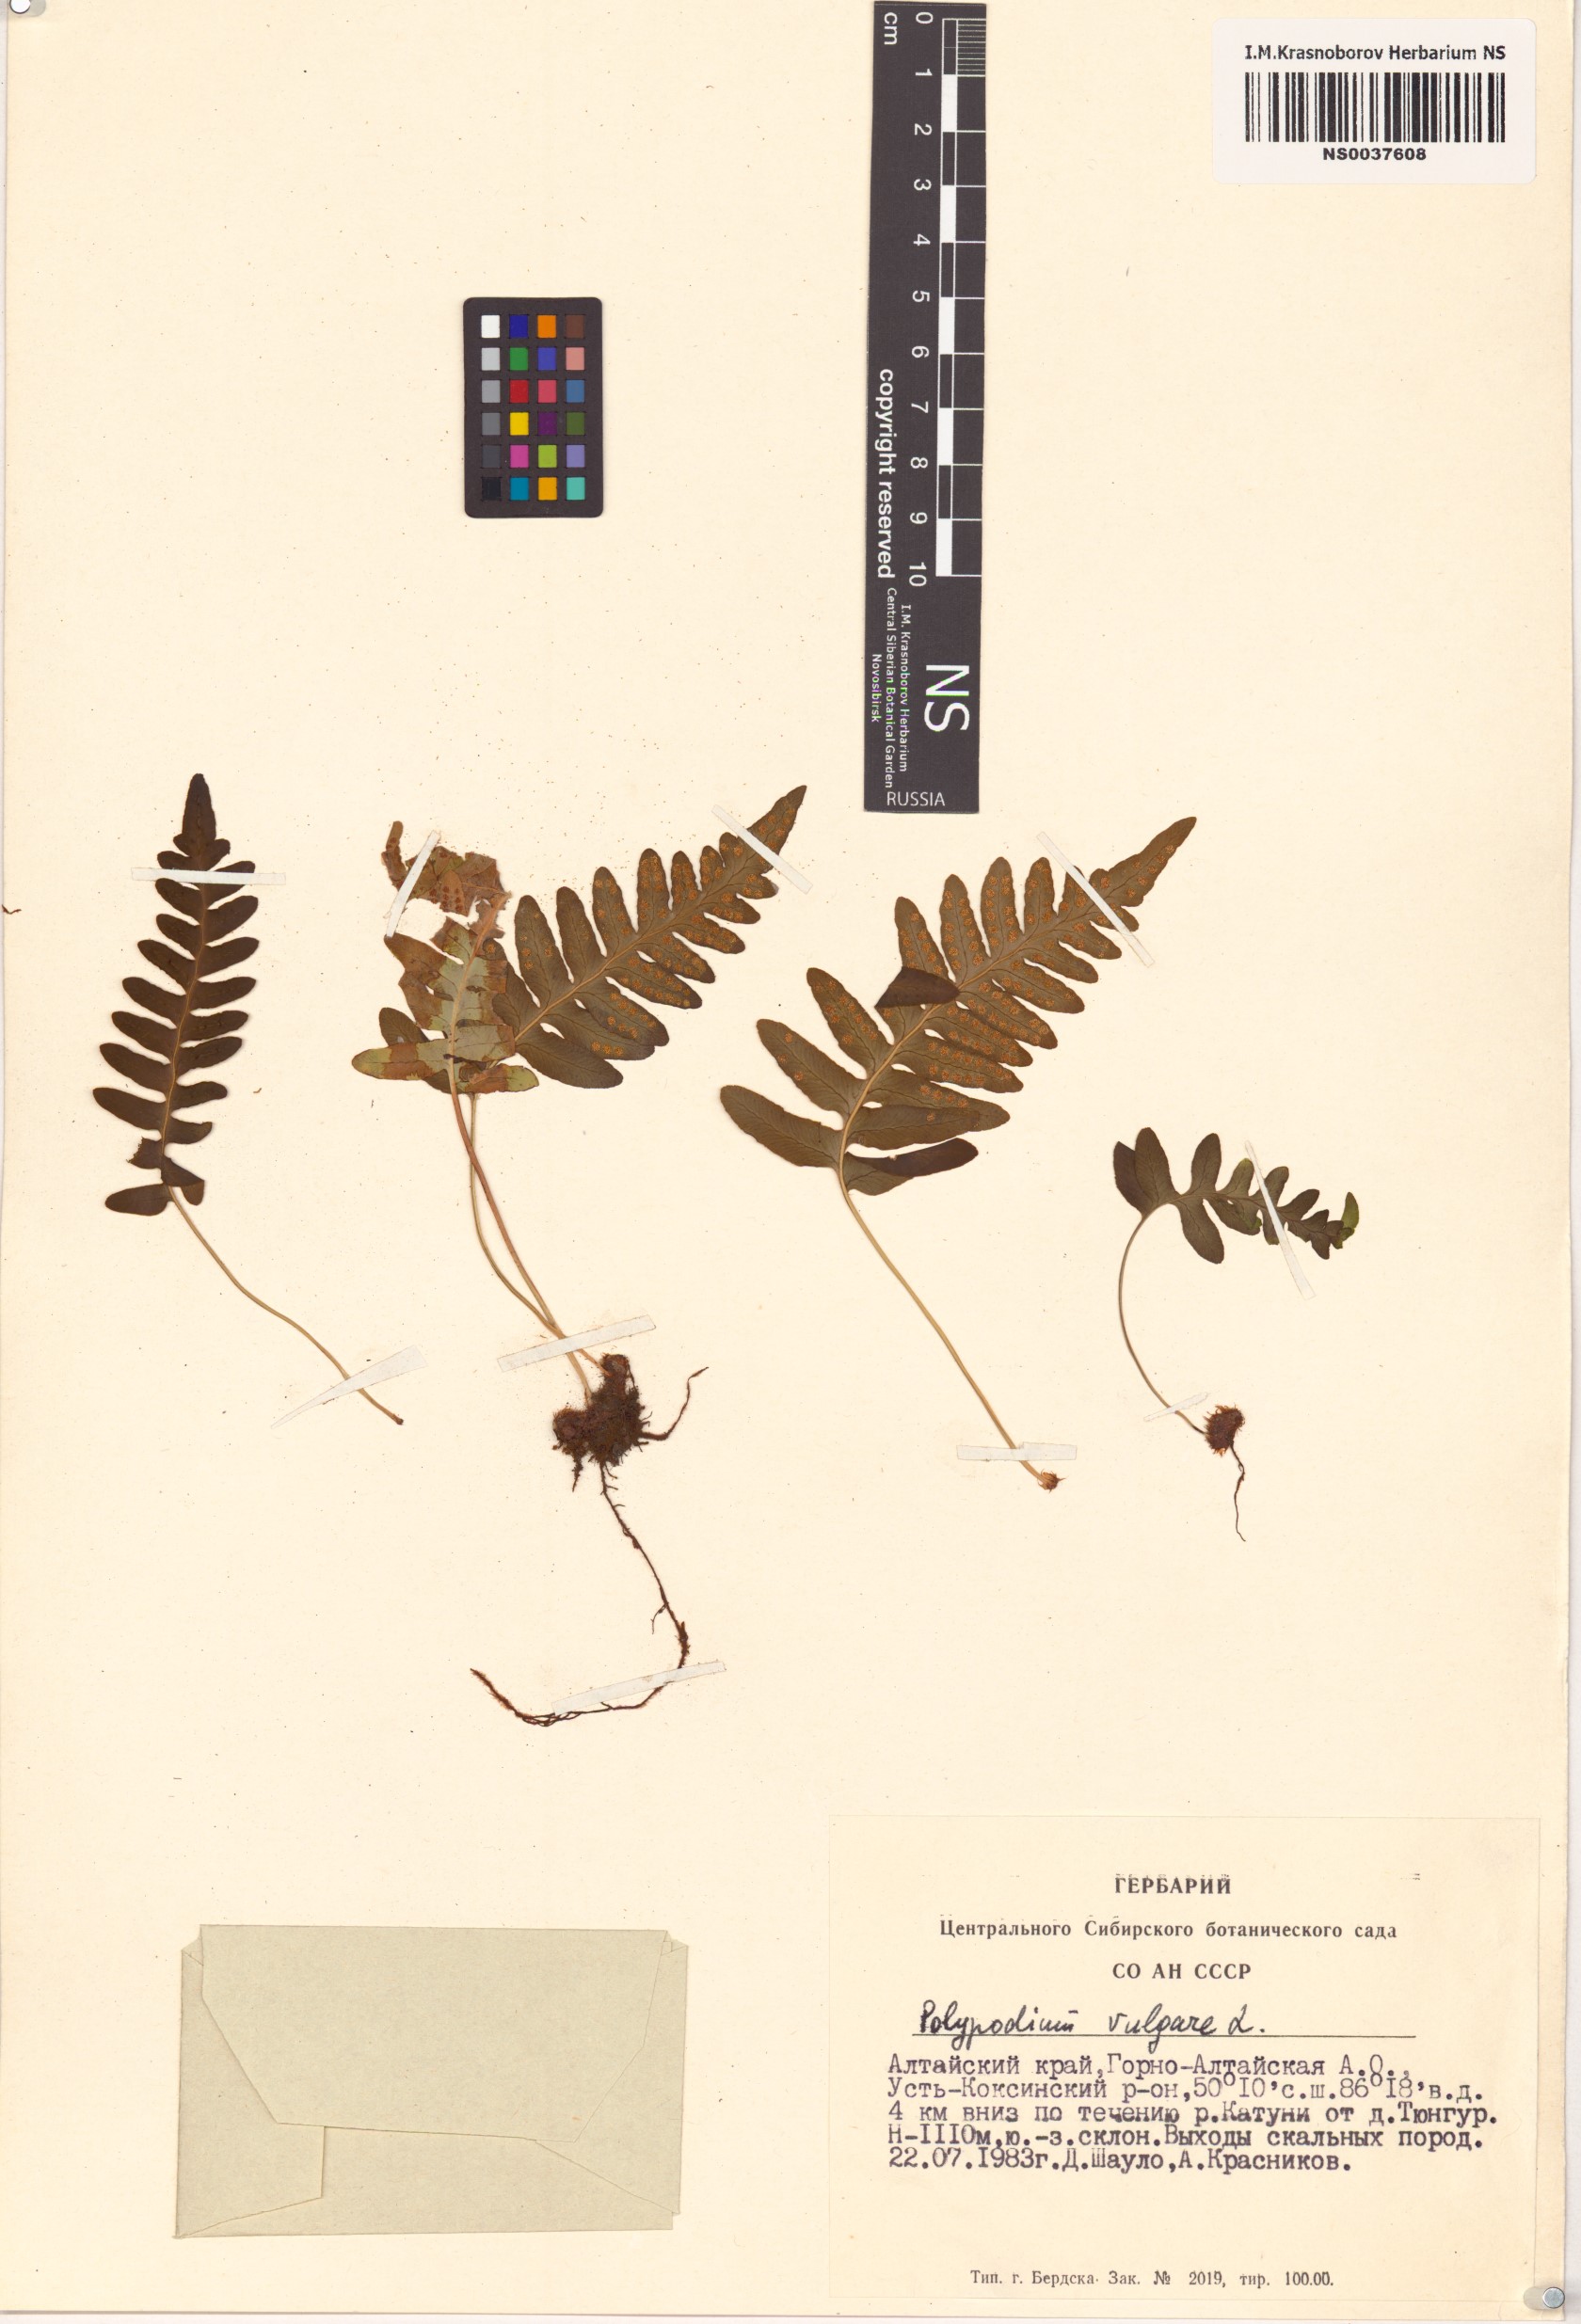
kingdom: Plantae
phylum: Tracheophyta
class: Polypodiopsida
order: Polypodiales
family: Polypodiaceae
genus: Polypodium
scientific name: Polypodium vulgare
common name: Common polypody
